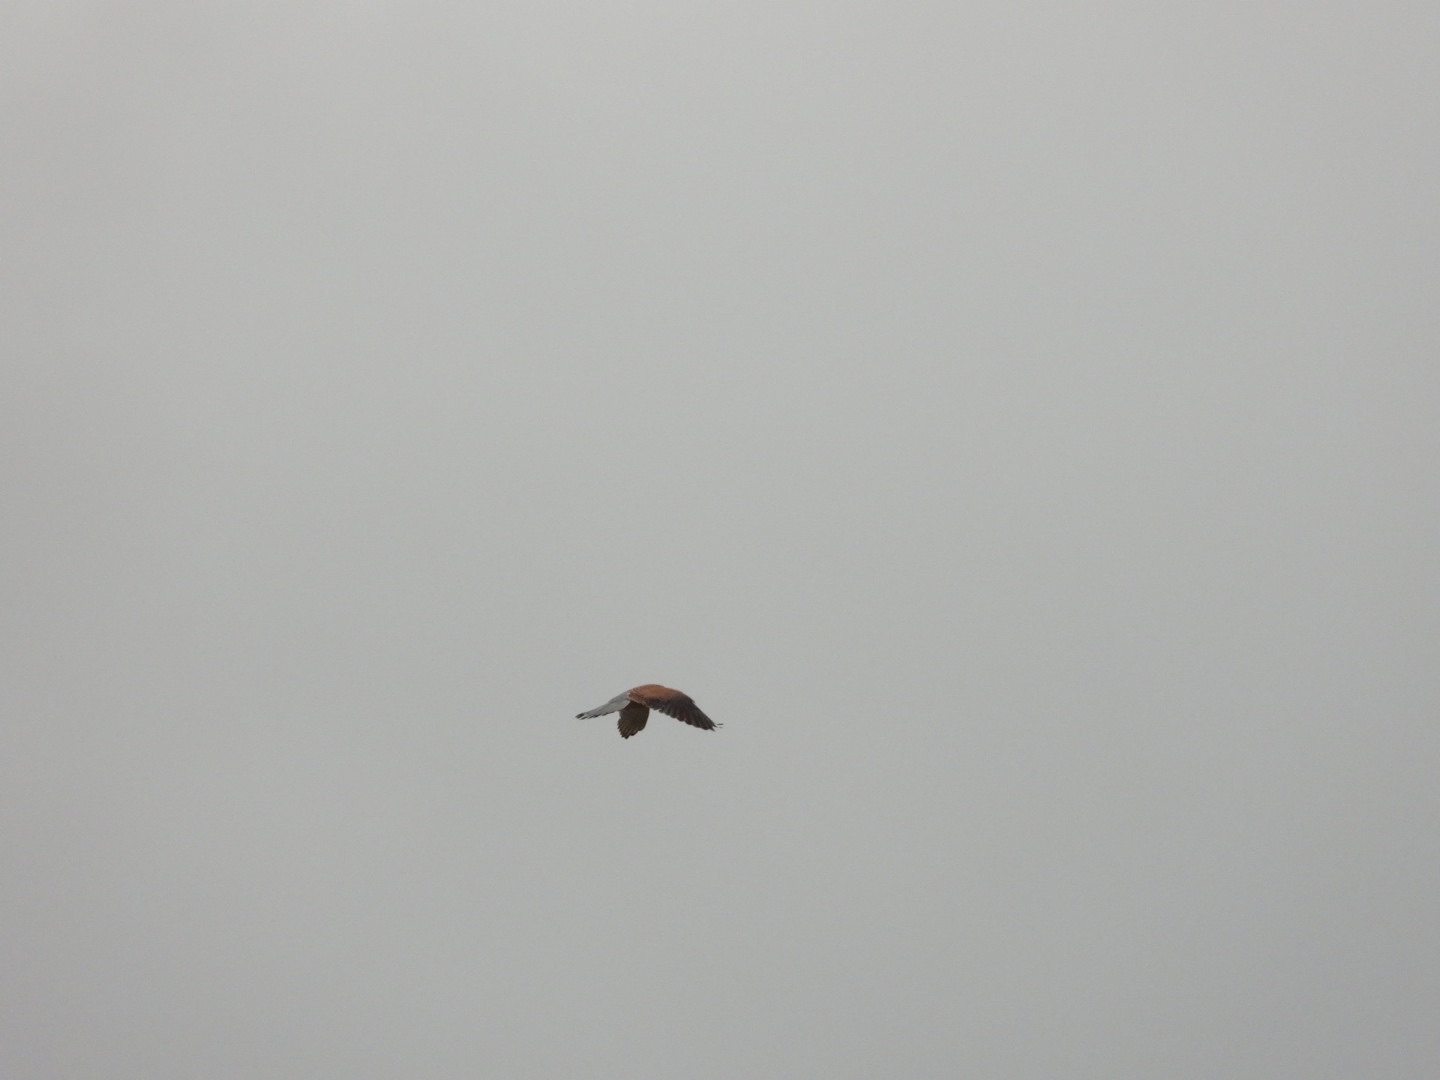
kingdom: Animalia
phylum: Chordata
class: Aves
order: Falconiformes
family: Falconidae
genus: Falco
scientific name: Falco tinnunculus
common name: Tårnfalk
